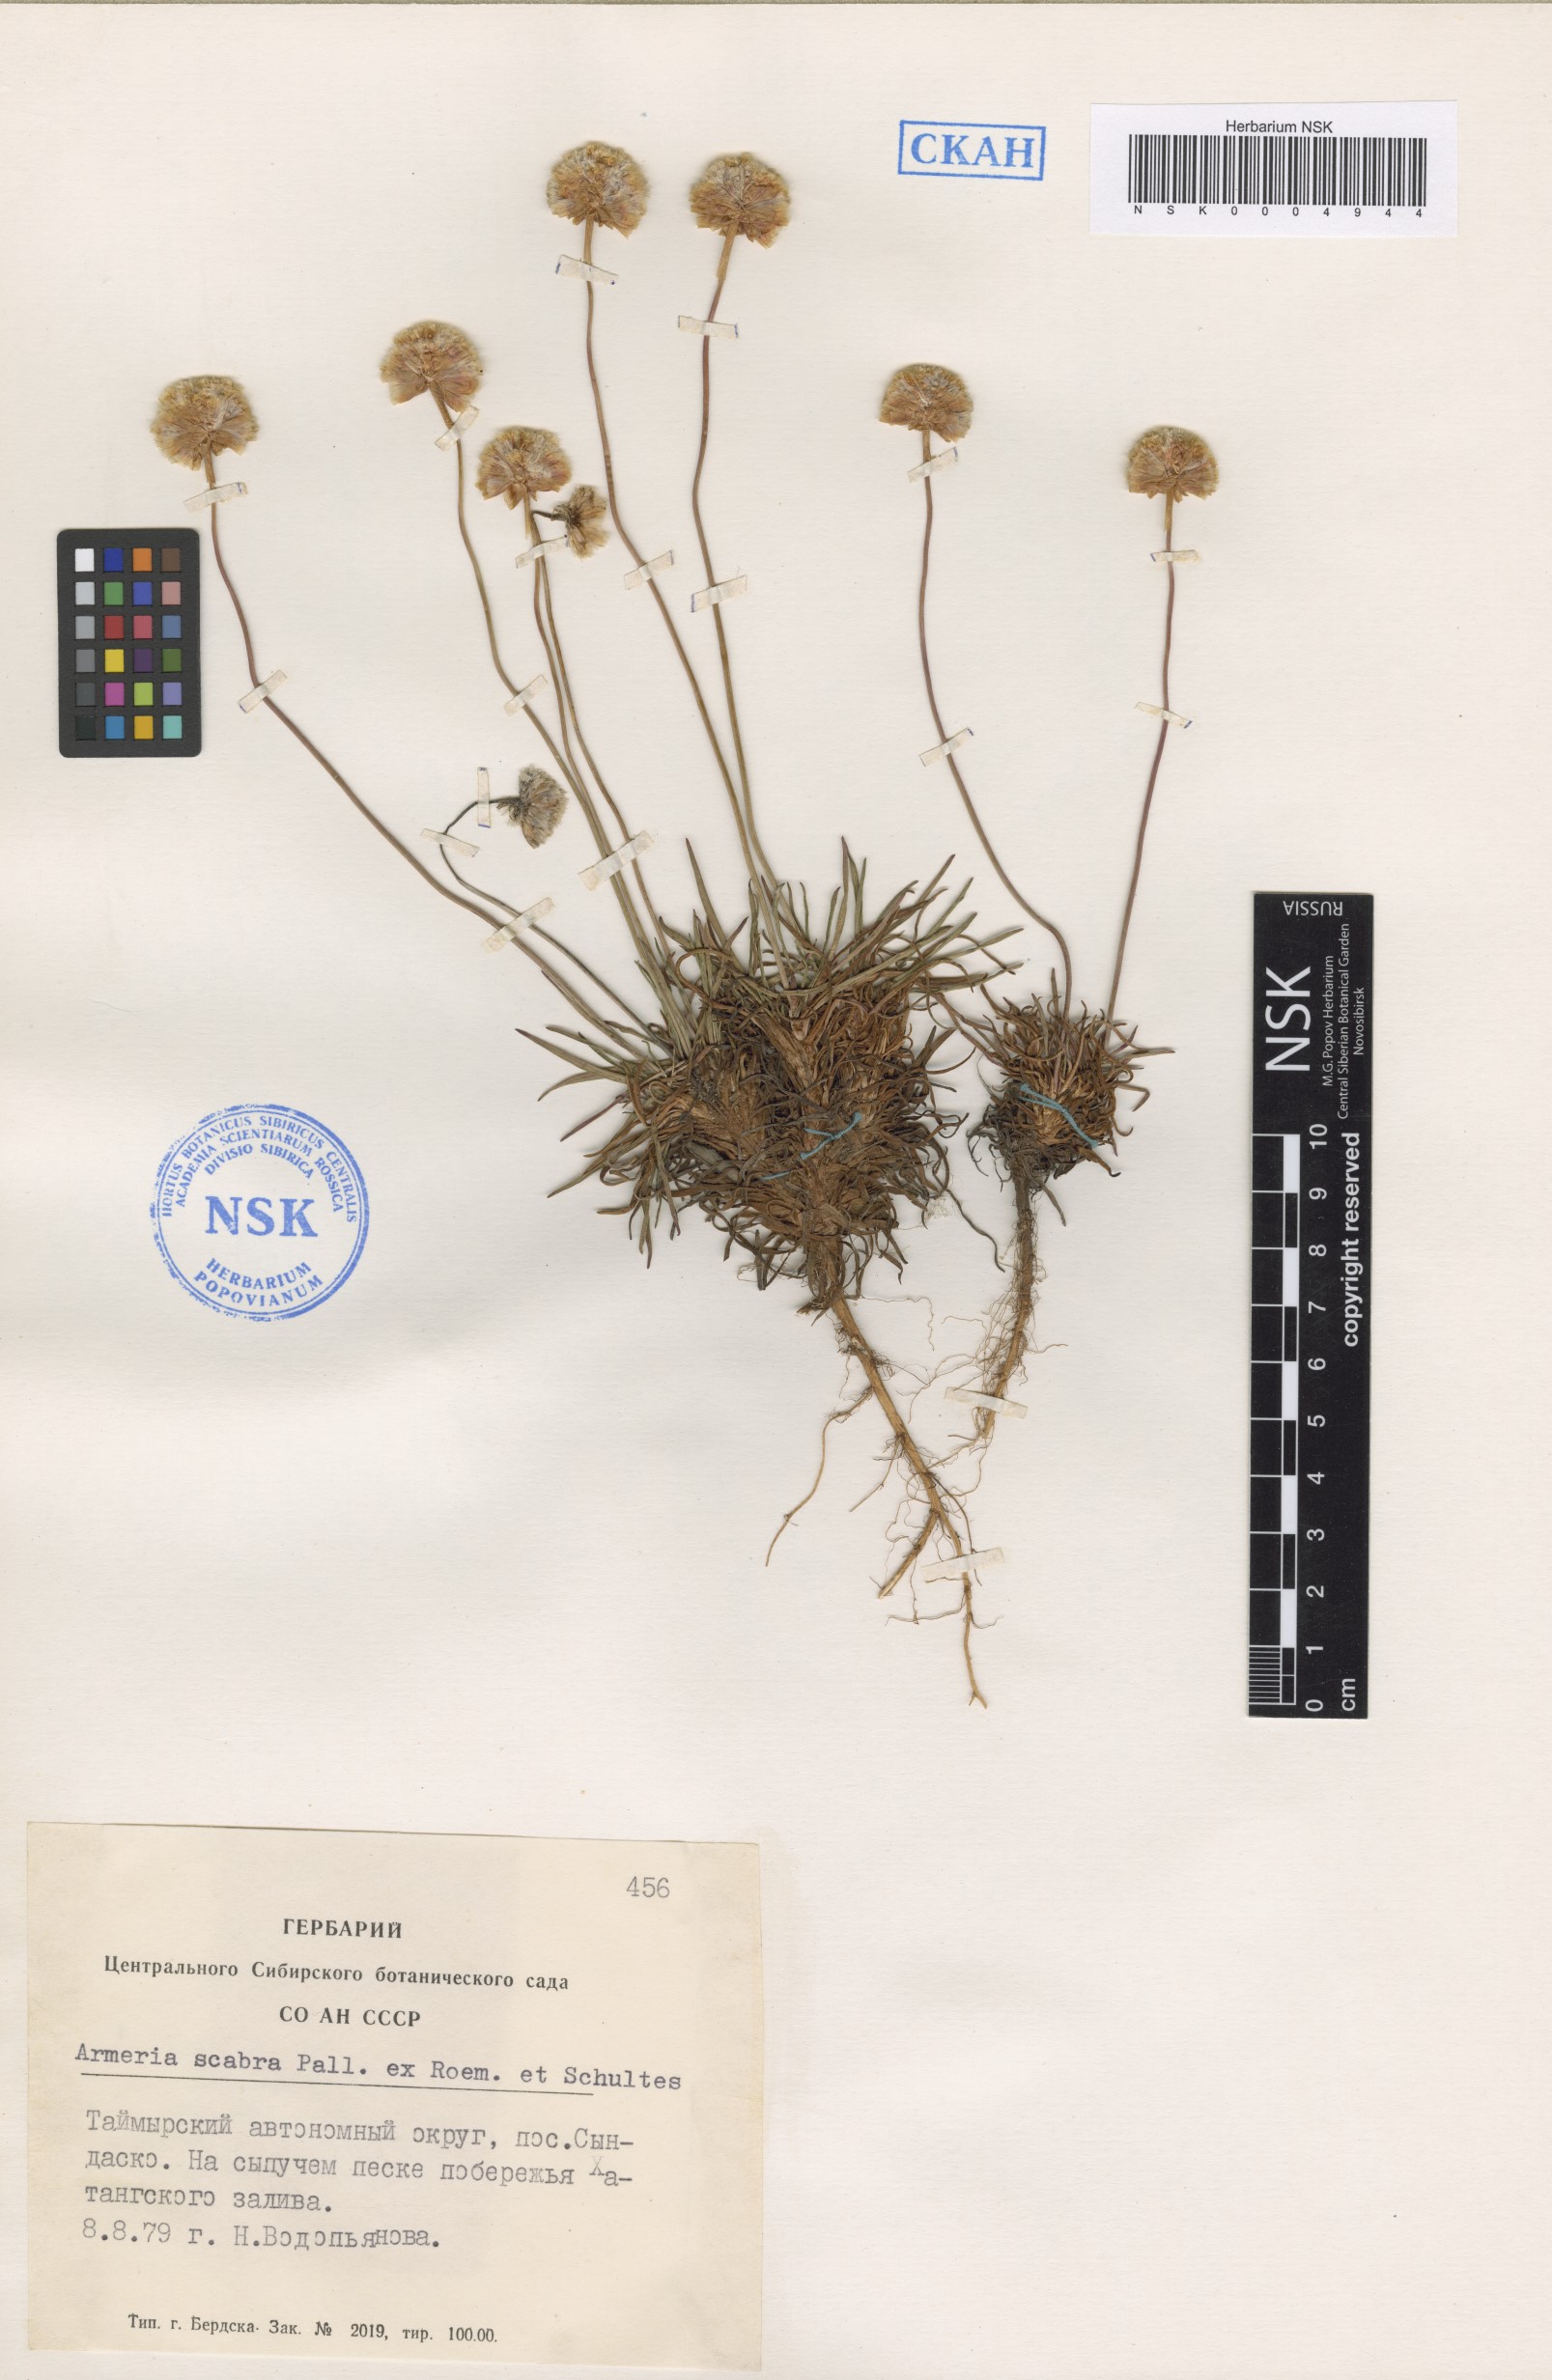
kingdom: Plantae
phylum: Tracheophyta
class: Magnoliopsida
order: Caryophyllales
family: Plumbaginaceae
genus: Armeria
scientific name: Armeria maritima
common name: Thrift
